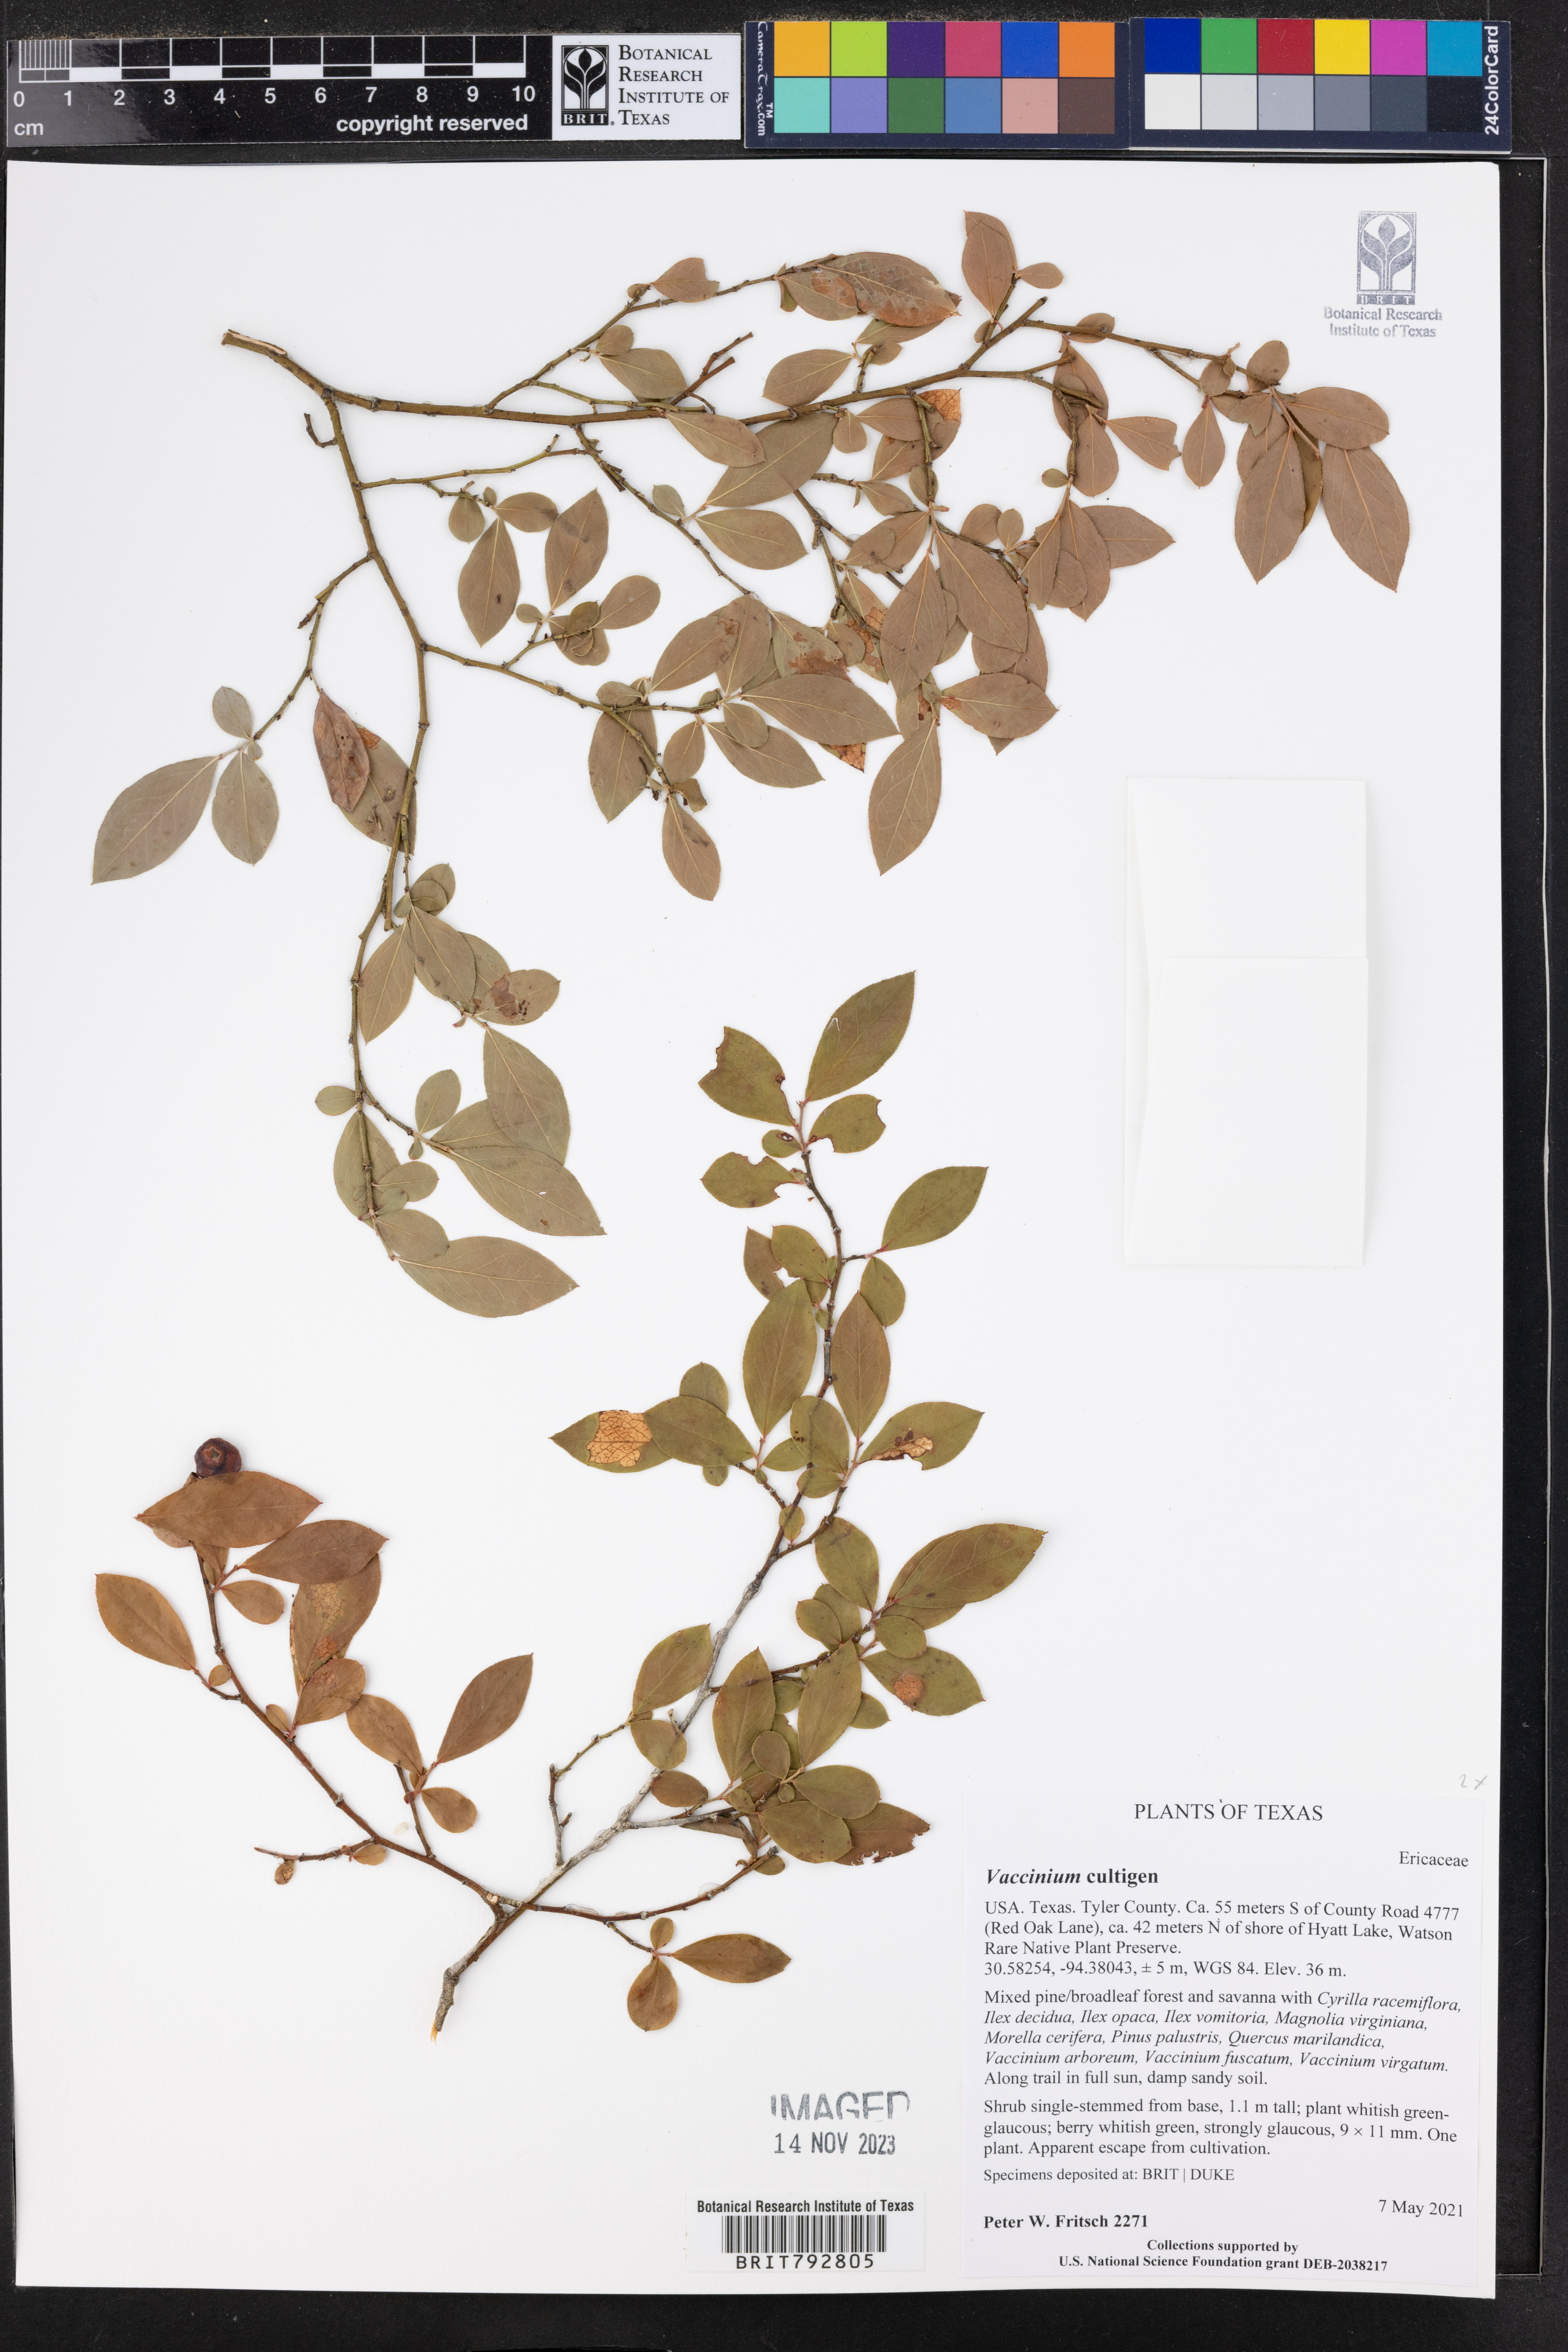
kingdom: Plantae
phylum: Tracheophyta
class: Magnoliopsida
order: Ericales
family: Ericaceae
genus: Vaccinium
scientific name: Vaccinium
